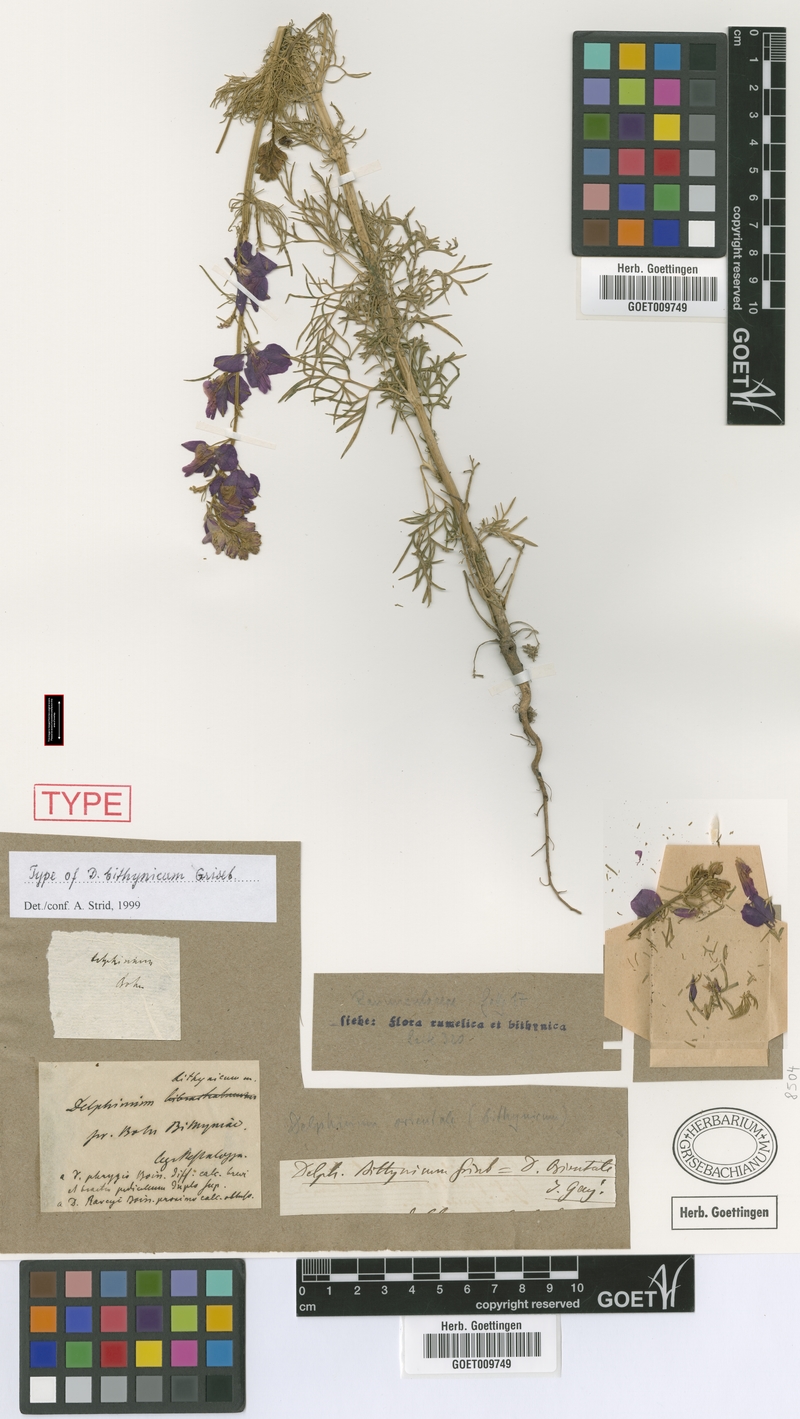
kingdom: Plantae
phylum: Tracheophyta
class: Magnoliopsida
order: Ranunculales
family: Ranunculaceae
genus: Delphinium
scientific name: Delphinium hispanicum
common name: Oriental knight's-spur
